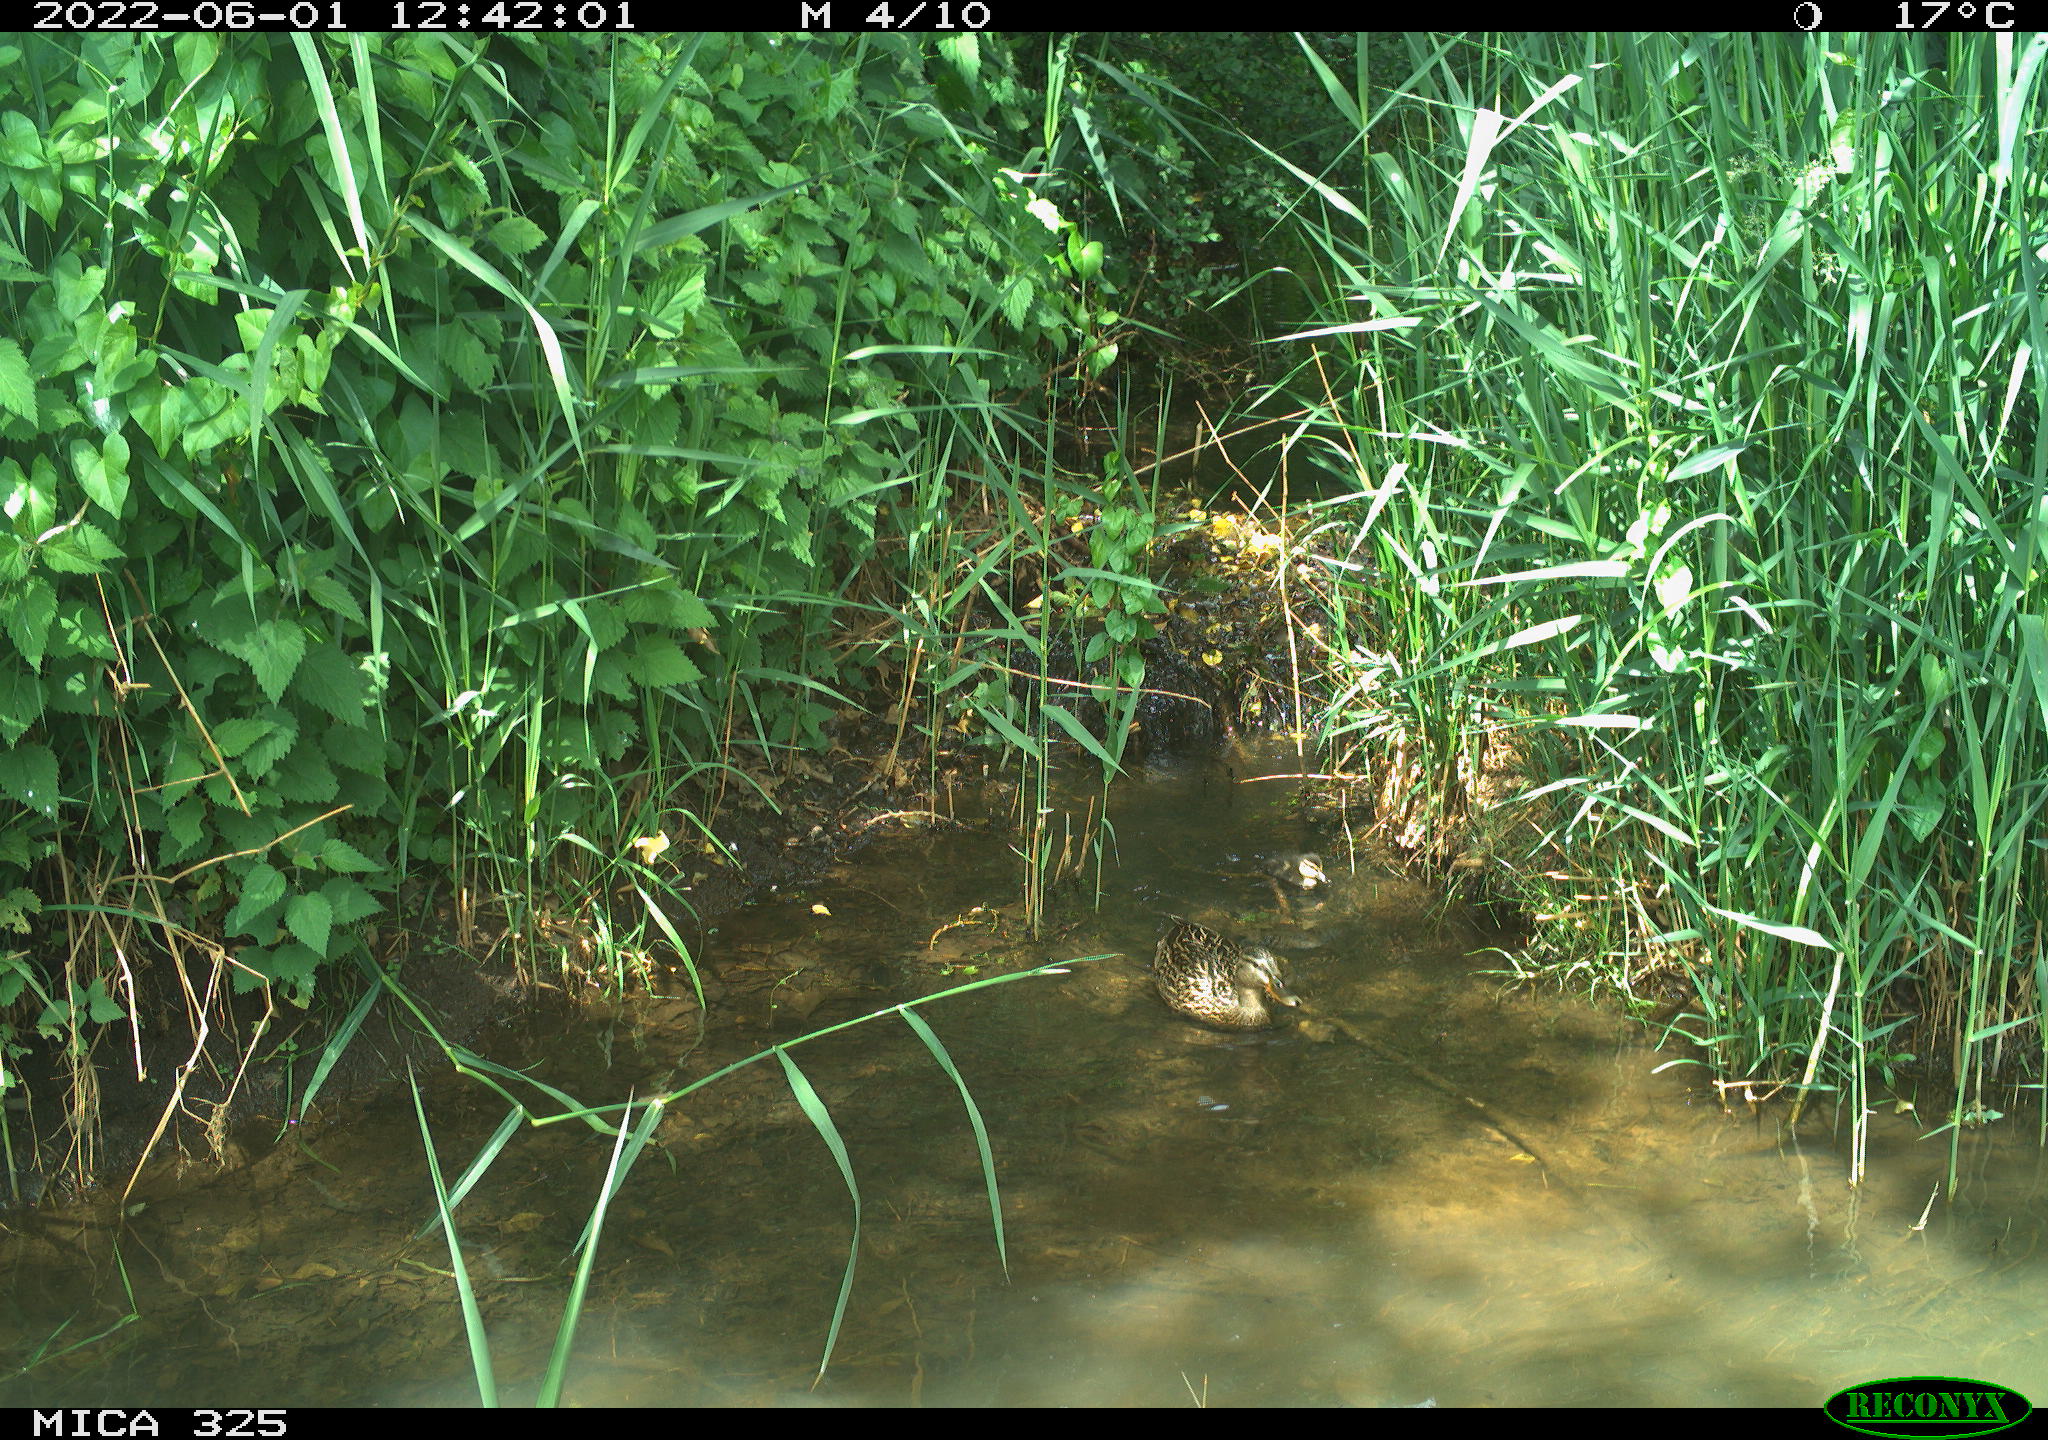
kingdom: Animalia
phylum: Chordata
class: Aves
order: Anseriformes
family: Anatidae
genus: Anas
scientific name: Anas platyrhynchos
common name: Mallard
